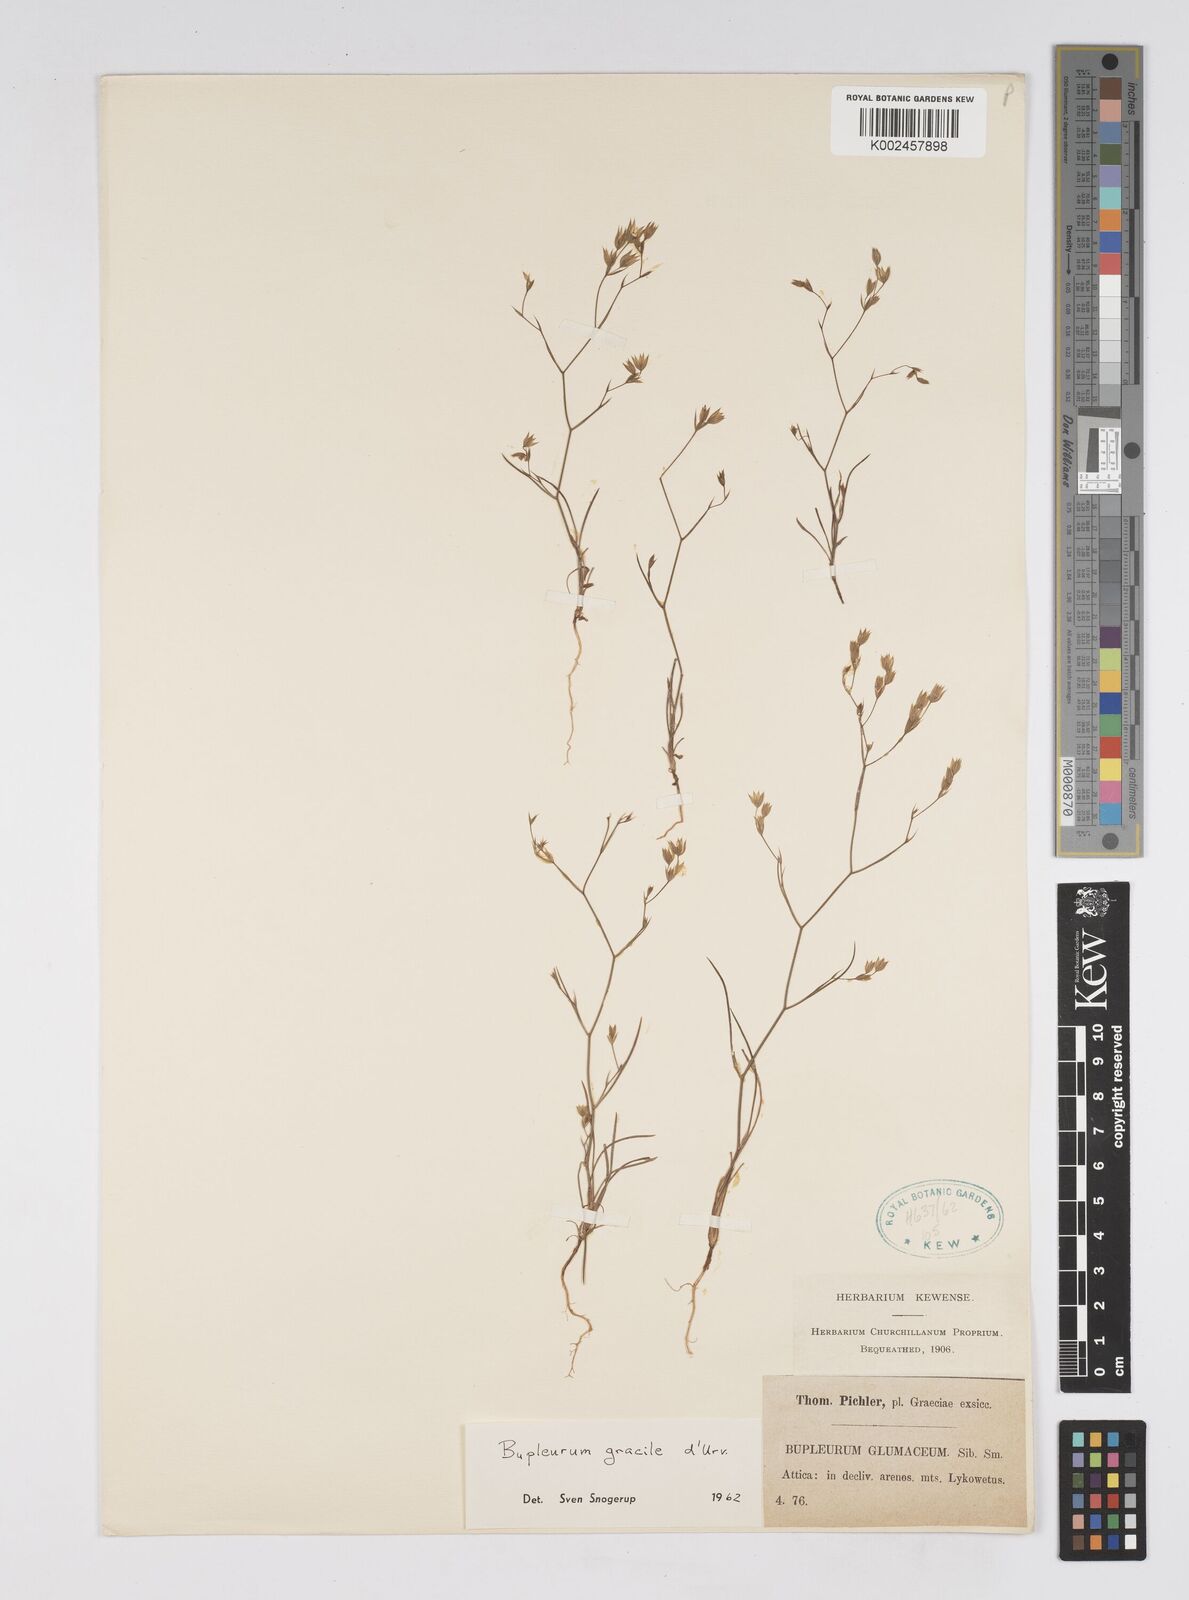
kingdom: Plantae
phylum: Tracheophyta
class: Magnoliopsida
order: Apiales
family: Apiaceae
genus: Bupleurum
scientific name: Bupleurum gracile
